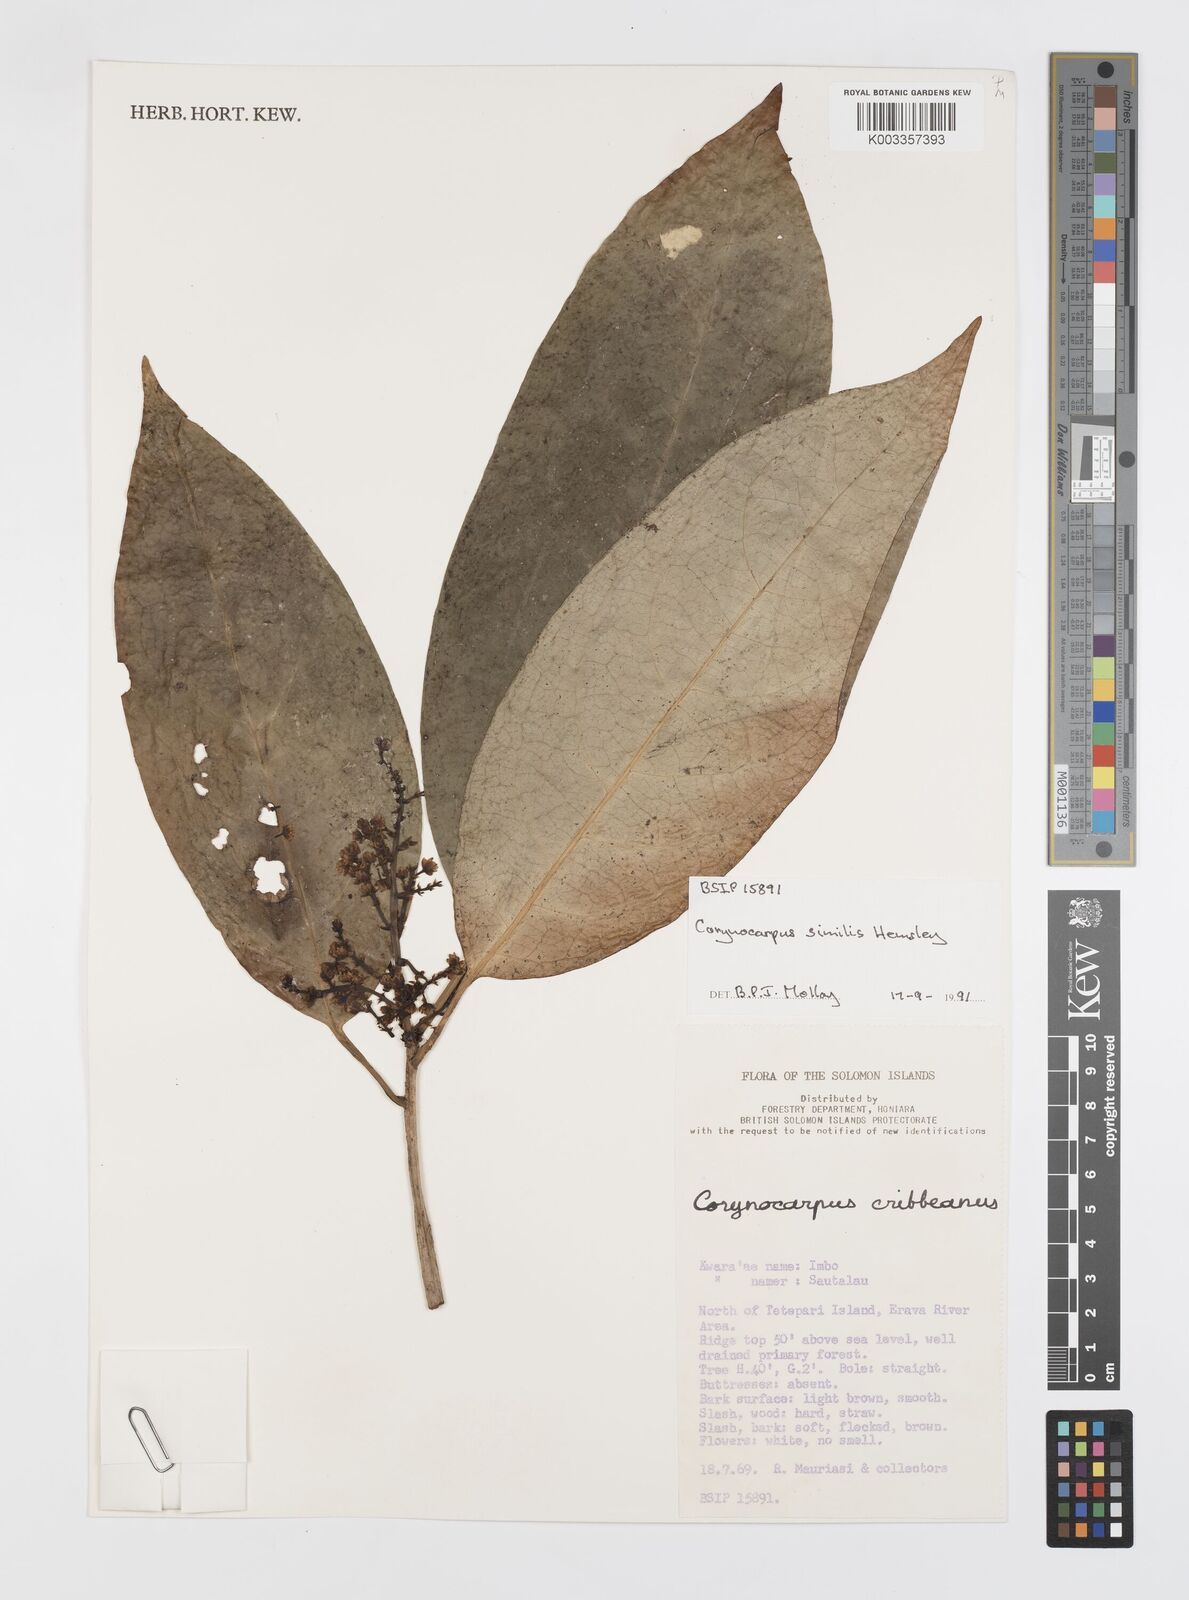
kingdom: Plantae
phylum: Tracheophyta
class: Magnoliopsida
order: Cucurbitales
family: Corynocarpaceae
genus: Corynocarpus
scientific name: Corynocarpus similis
